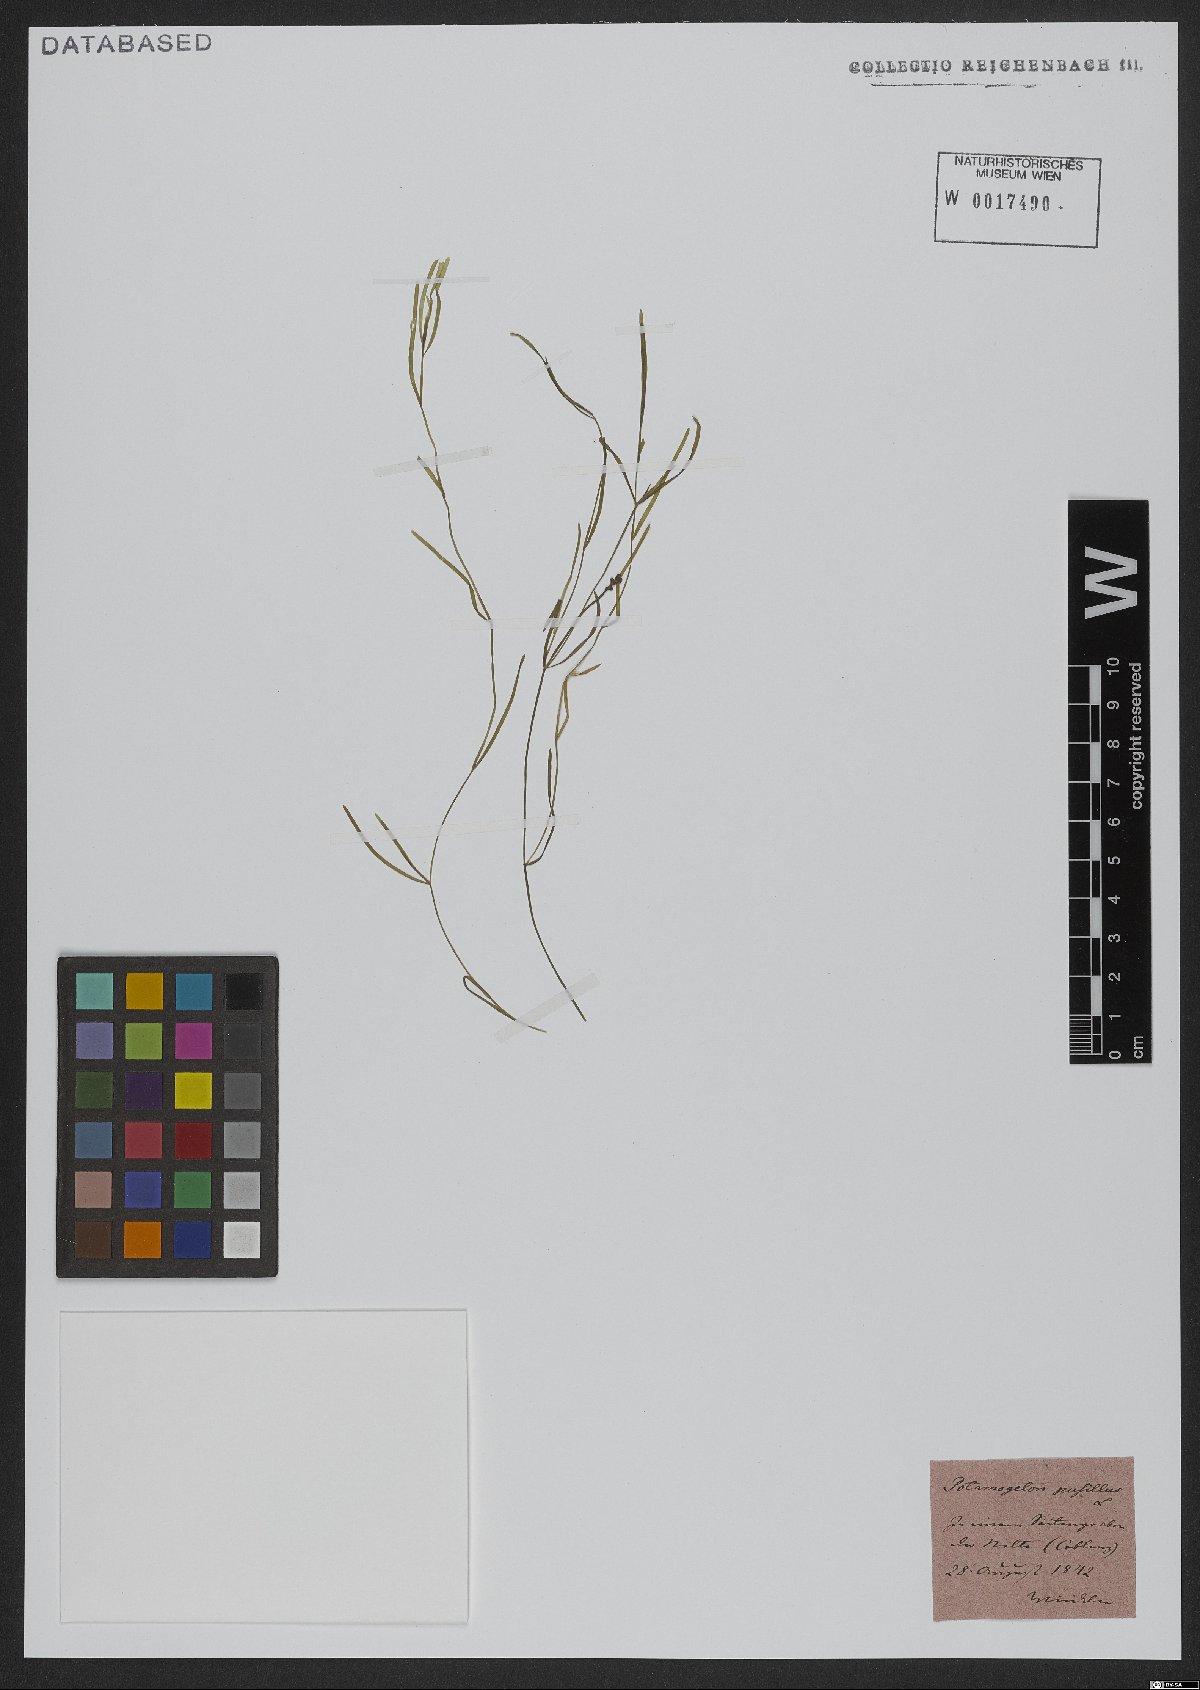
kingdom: Plantae
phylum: Tracheophyta
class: Liliopsida
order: Alismatales
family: Potamogetonaceae
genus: Potamogeton
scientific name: Potamogeton pusillus
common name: Lesser pondweed
